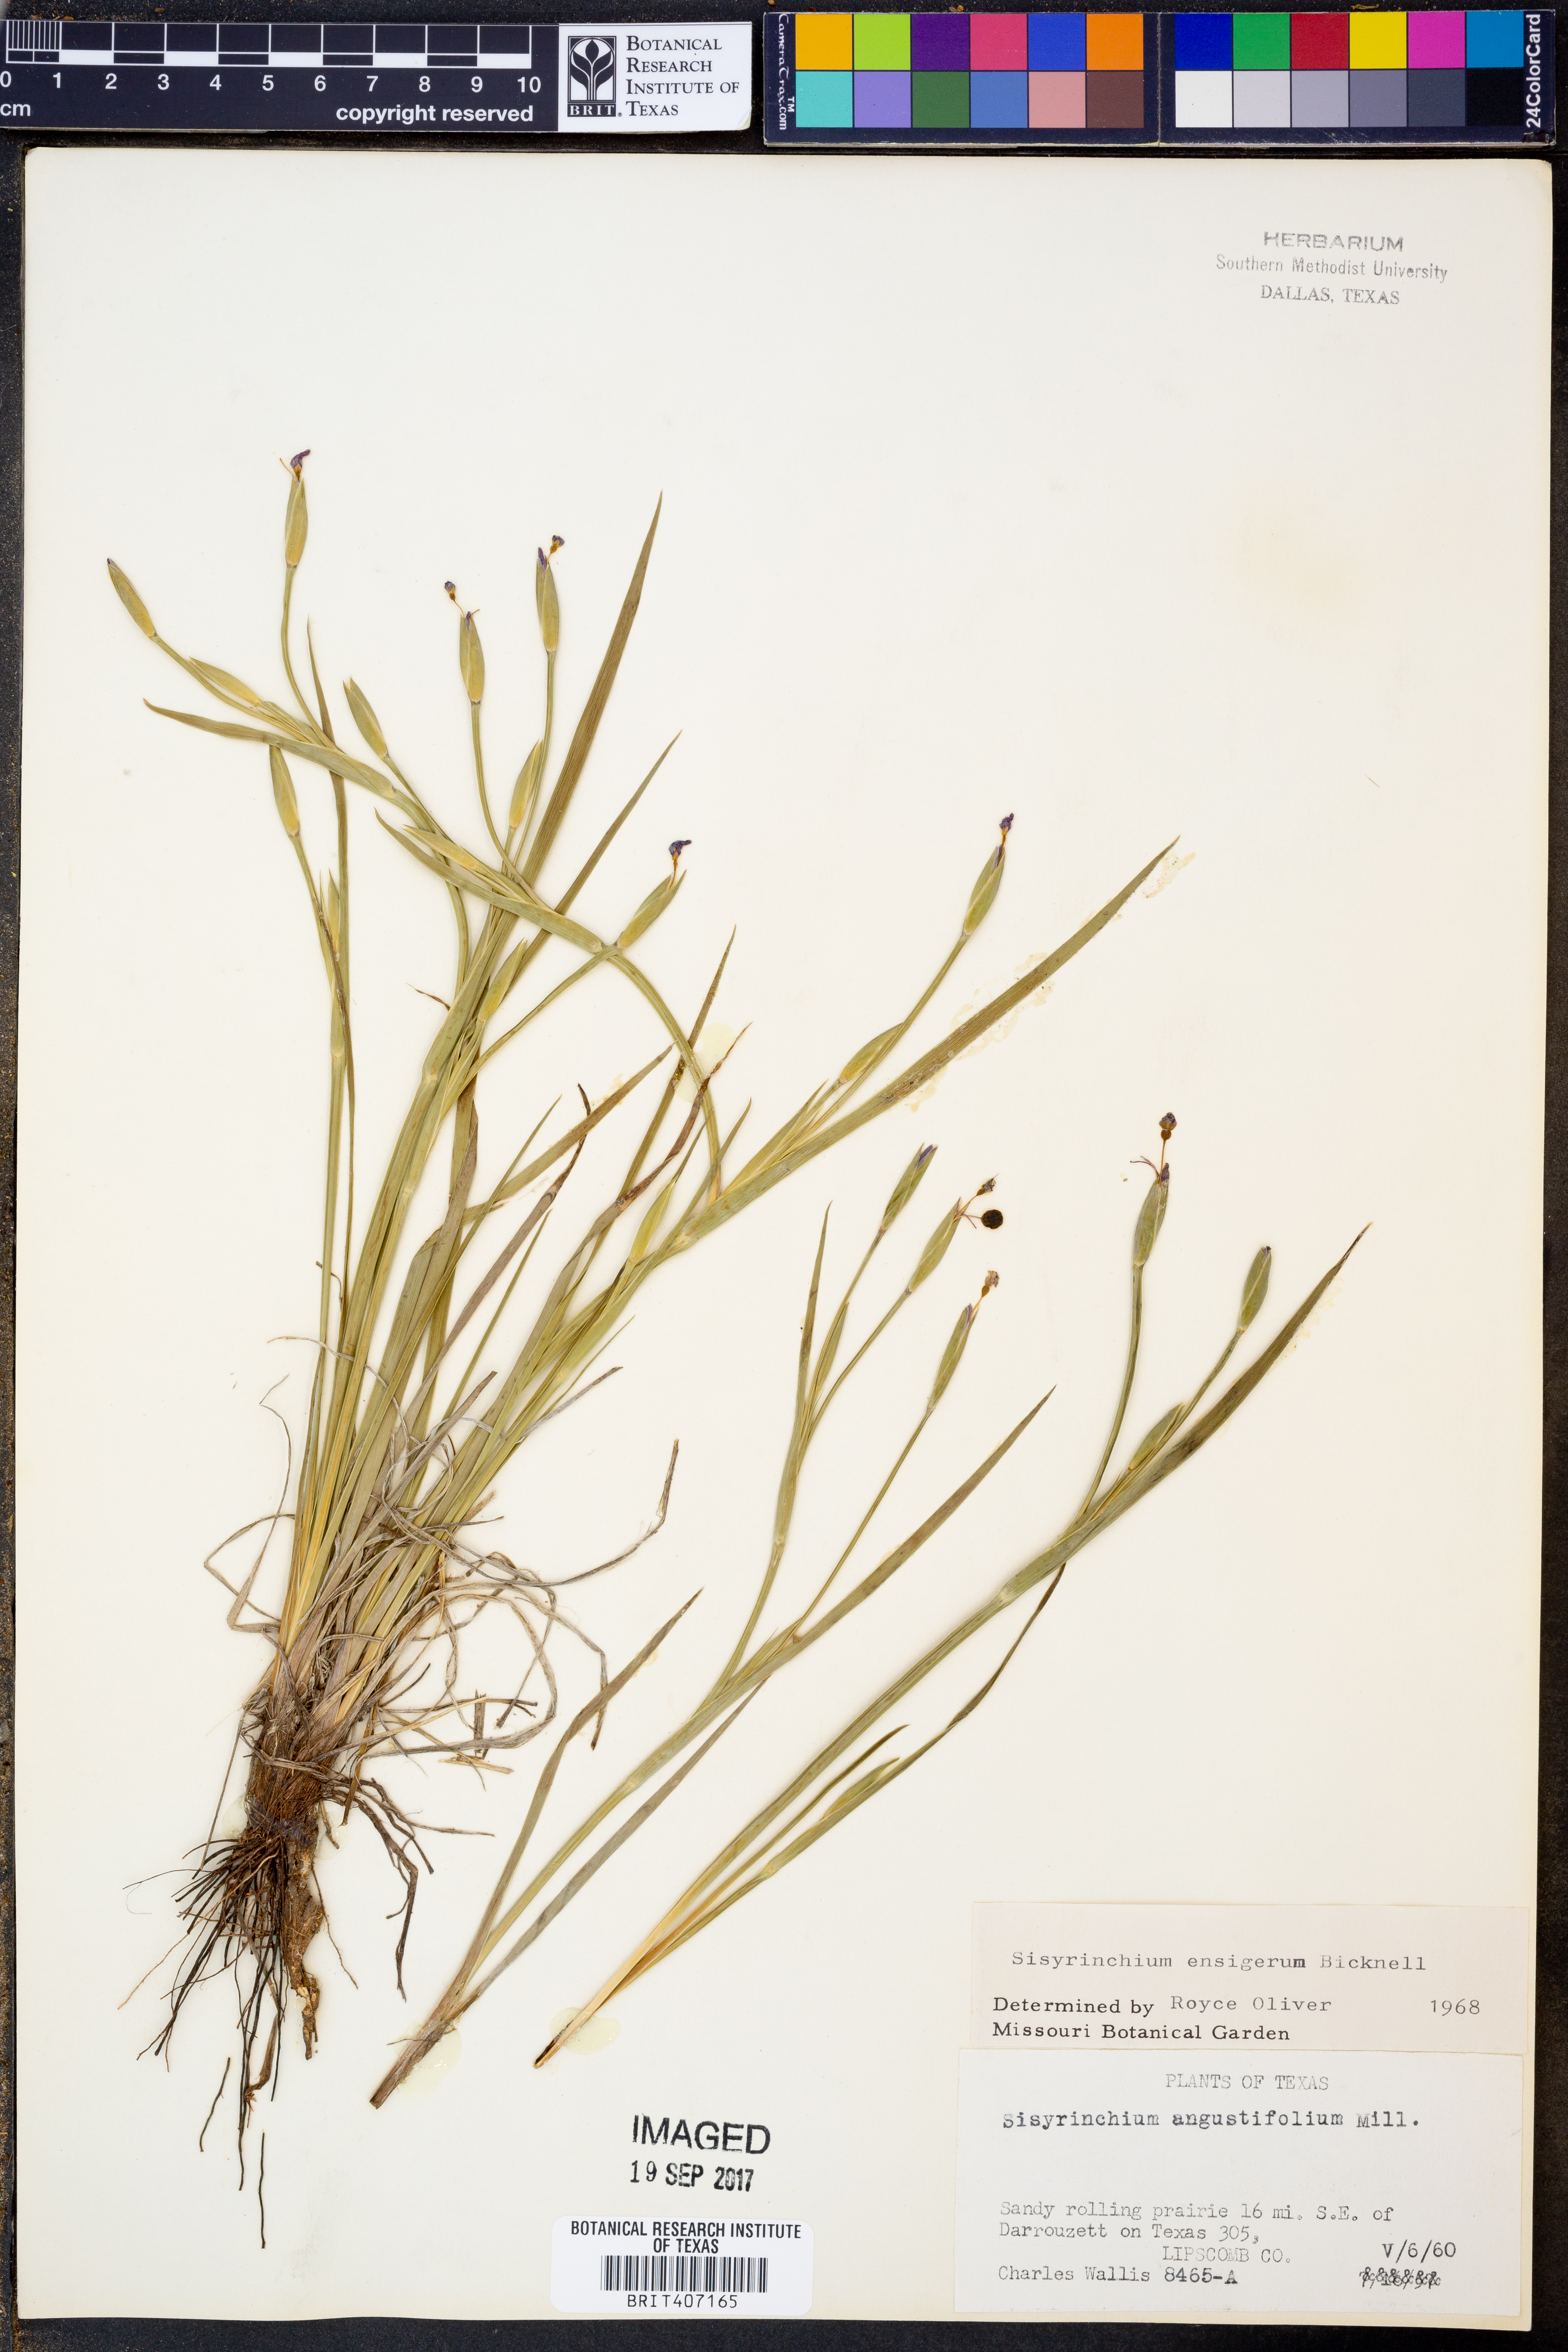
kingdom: Plantae
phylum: Tracheophyta
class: Liliopsida
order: Asparagales
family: Iridaceae
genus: Sisyrinchium
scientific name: Sisyrinchium ensigerum
